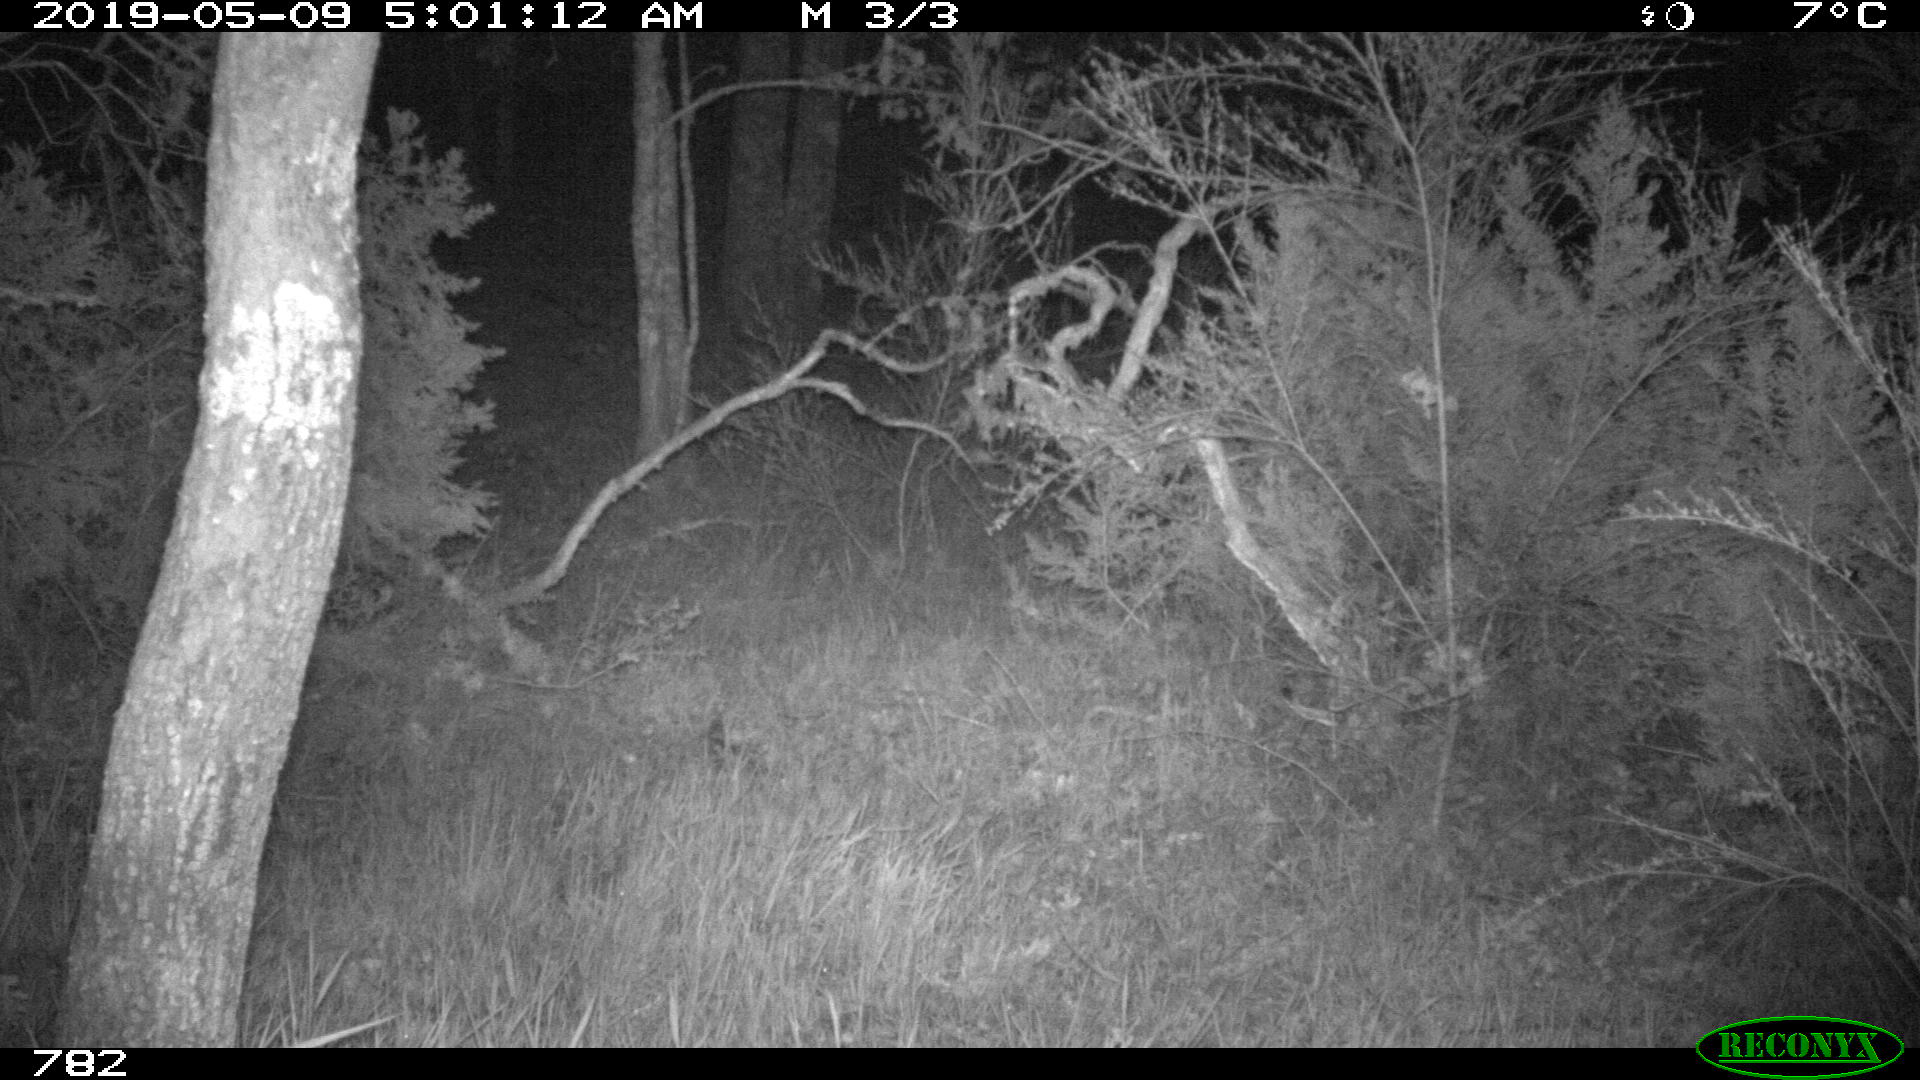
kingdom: Animalia
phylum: Chordata
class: Mammalia
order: Artiodactyla
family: Suidae
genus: Sus
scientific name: Sus scrofa
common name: Wild boar
